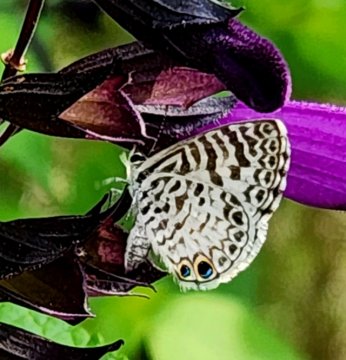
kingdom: Animalia
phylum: Arthropoda
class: Insecta
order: Lepidoptera
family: Lycaenidae
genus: Leptotes
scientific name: Leptotes cassius
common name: Cassius Blue
